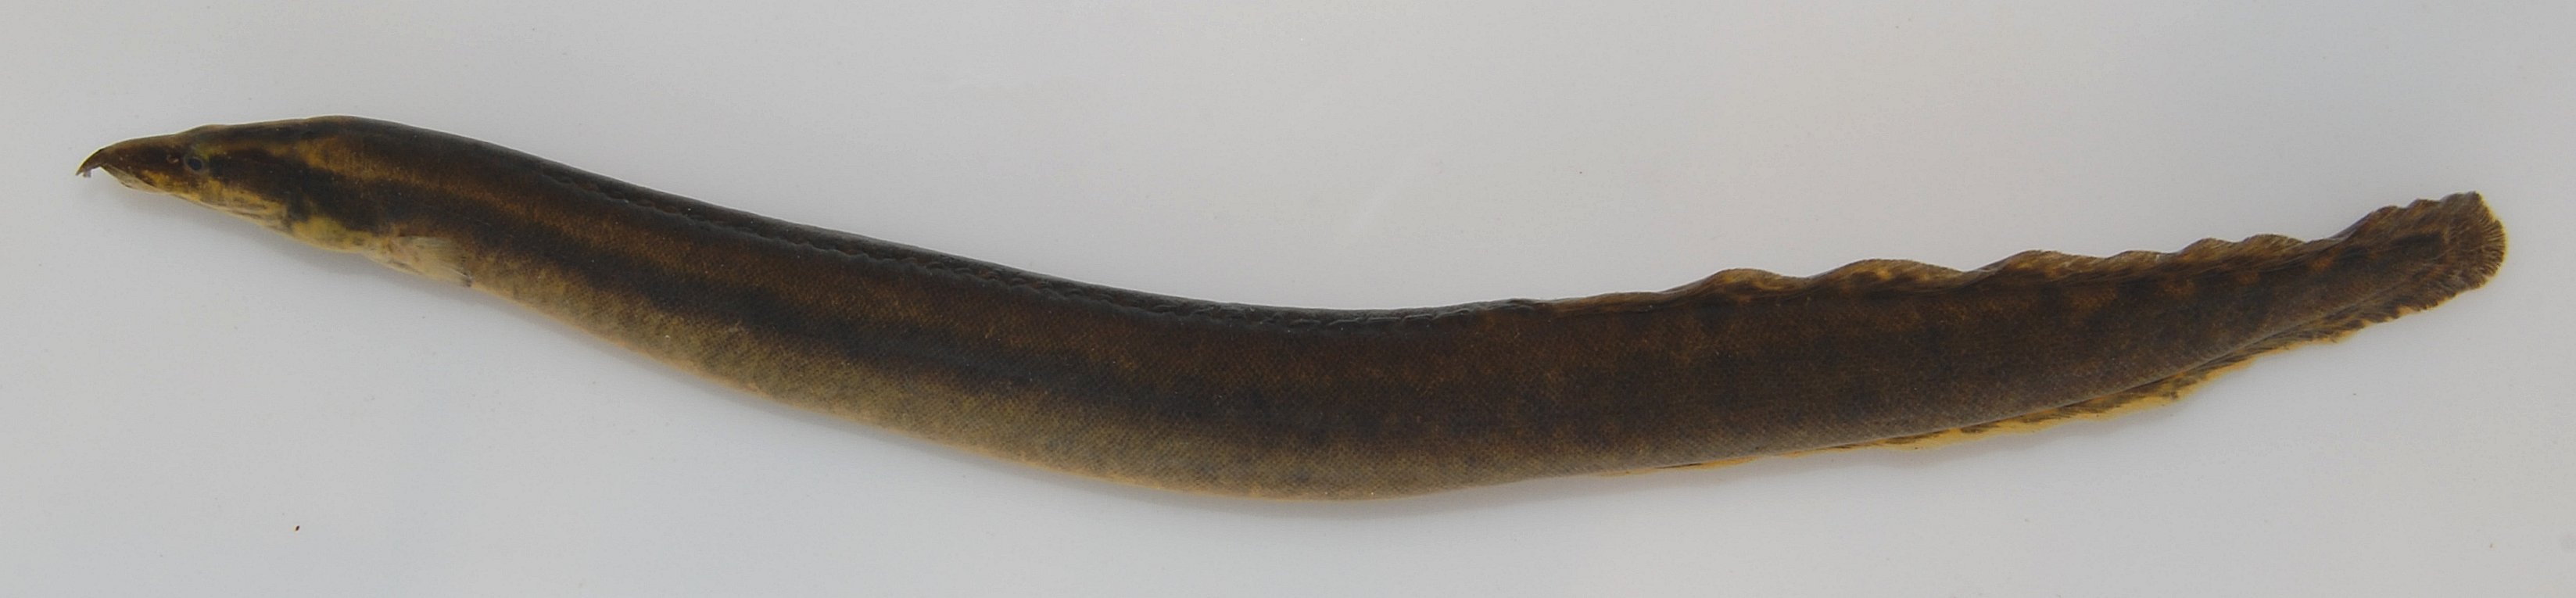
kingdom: Animalia
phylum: Chordata
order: Synbranchiformes
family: Mastacembelidae
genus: Mastacembelus
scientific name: Mastacembelus frenatus
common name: East african spiny eel
